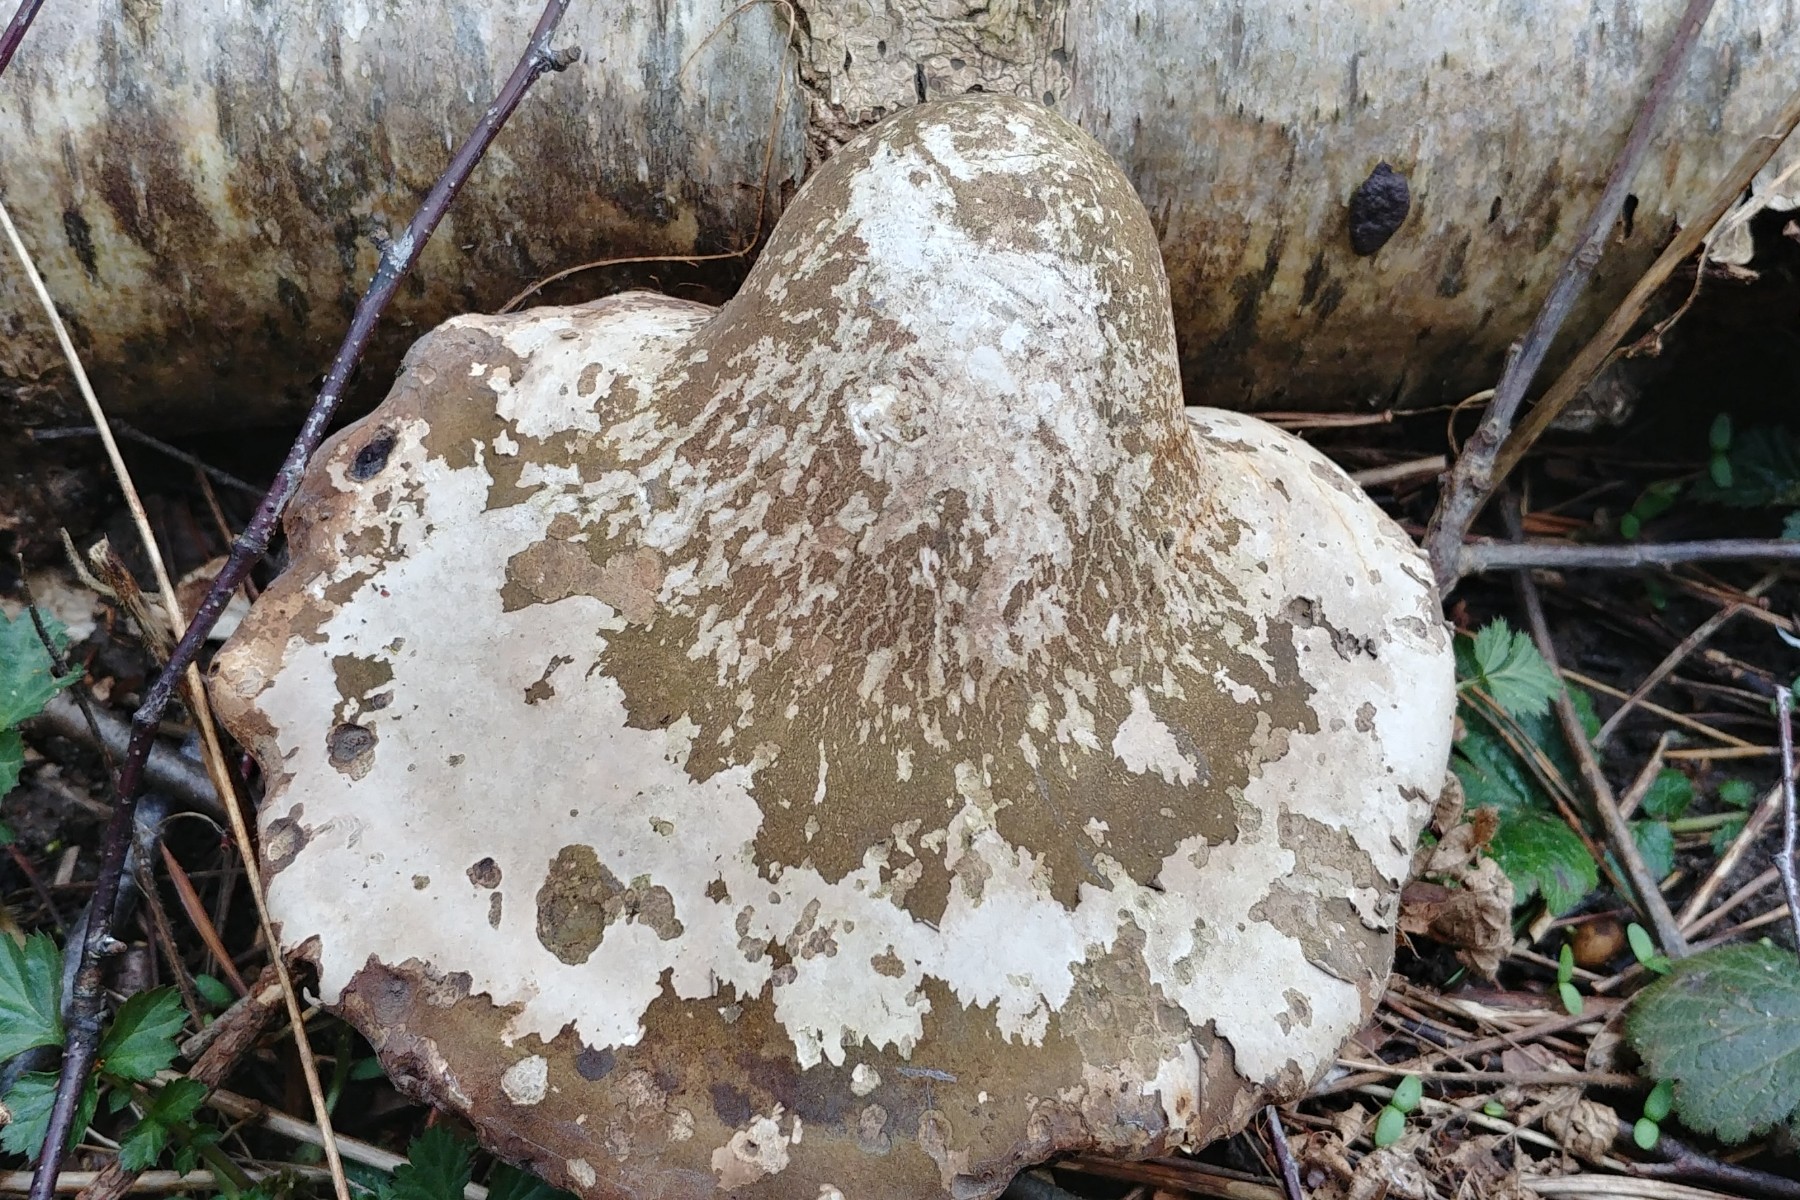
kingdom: Fungi
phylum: Basidiomycota
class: Agaricomycetes
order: Polyporales
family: Fomitopsidaceae
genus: Fomitopsis
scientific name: Fomitopsis betulina
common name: birkeporesvamp
